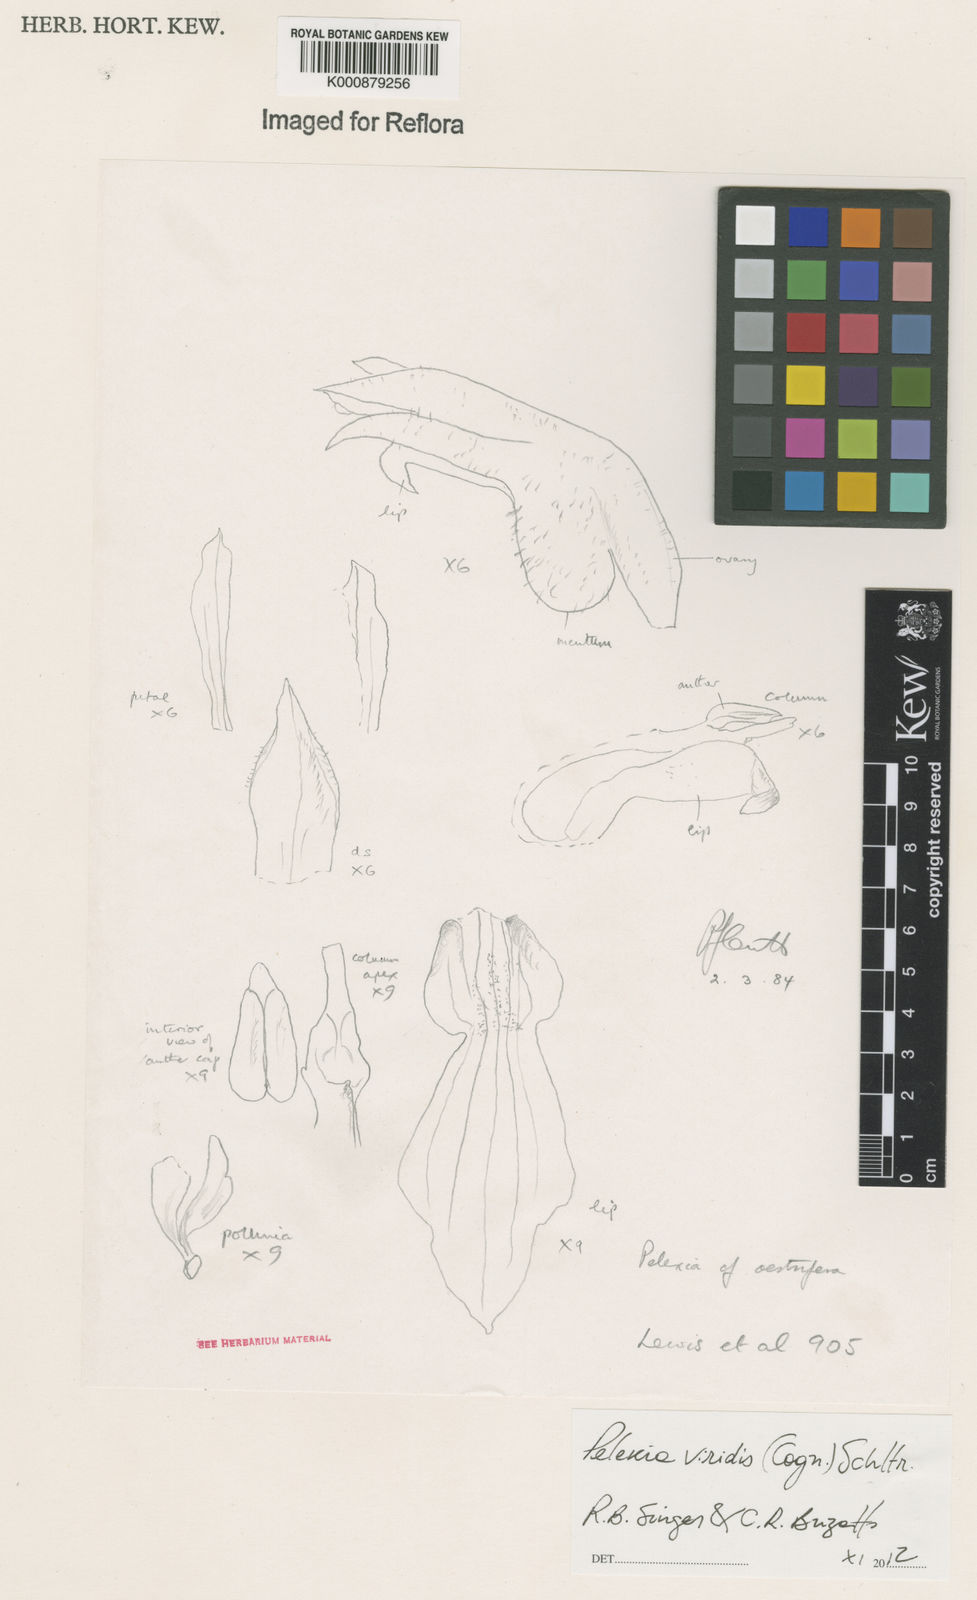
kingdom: Plantae
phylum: Tracheophyta
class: Liliopsida
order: Asparagales
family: Orchidaceae
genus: Pelexia
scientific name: Pelexia viridis
